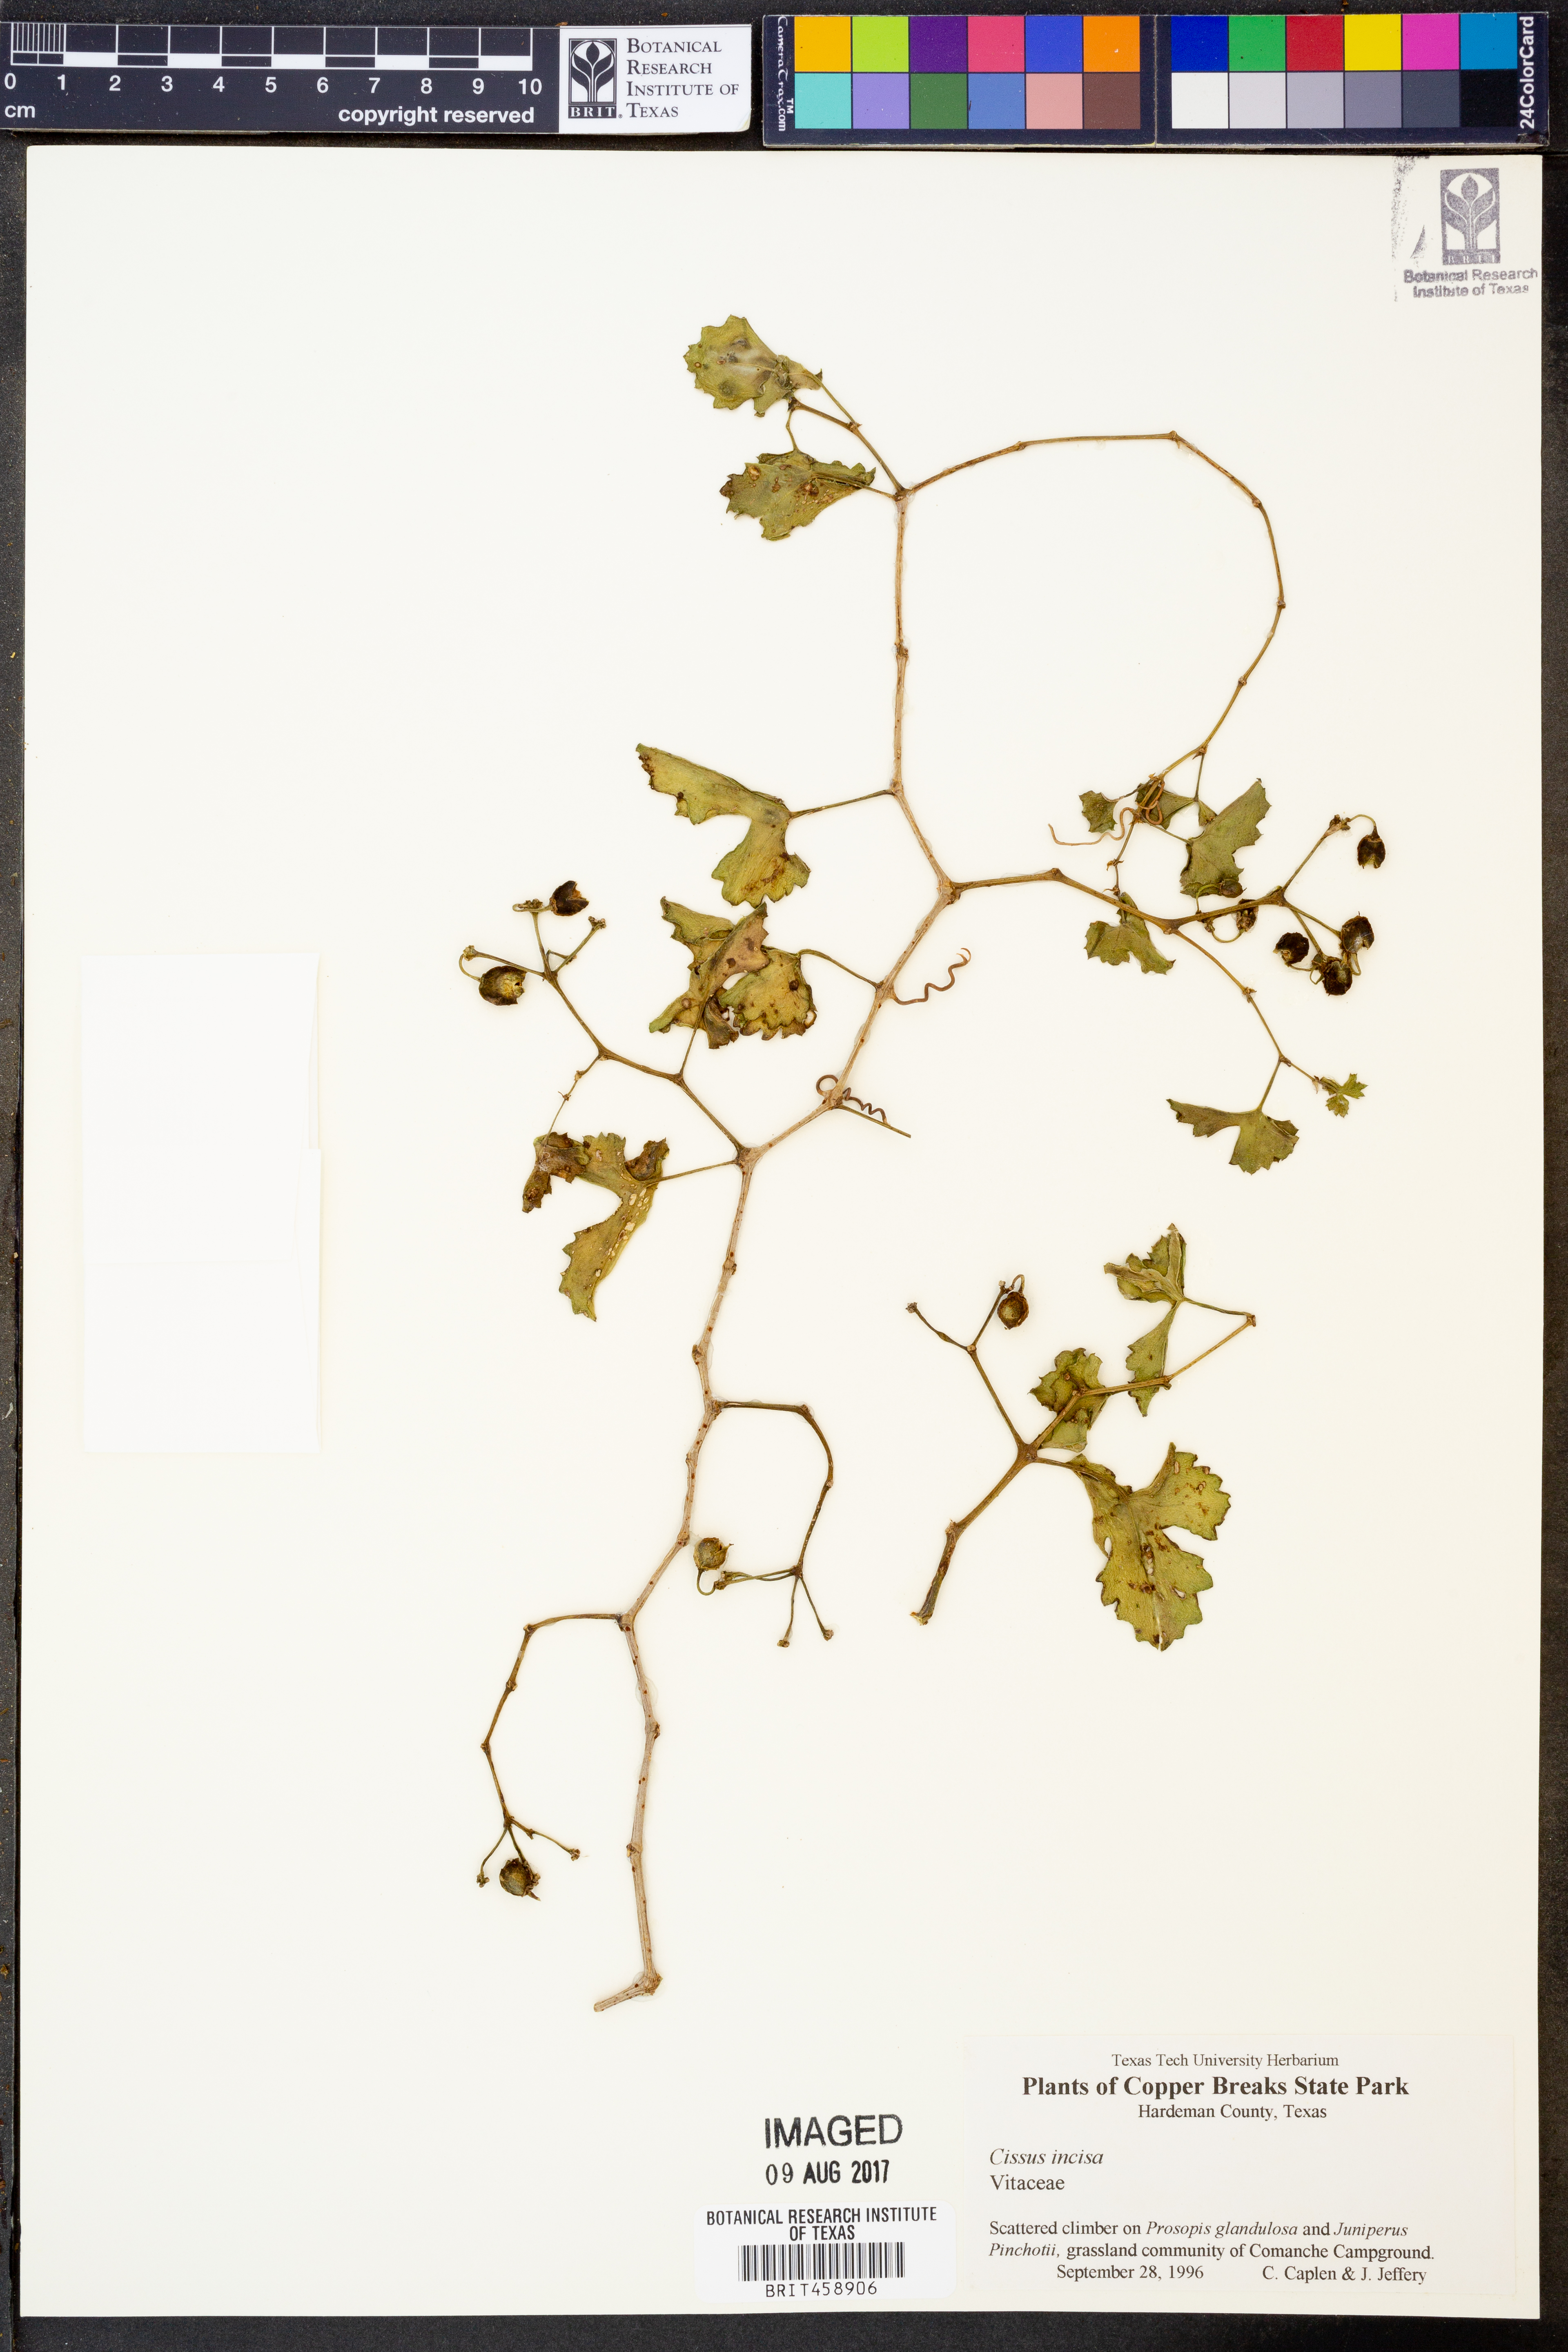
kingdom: Plantae
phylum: Tracheophyta
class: Magnoliopsida
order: Vitales
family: Vitaceae
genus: Cissus
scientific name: Cissus trifoliata
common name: Vine-sorrel
